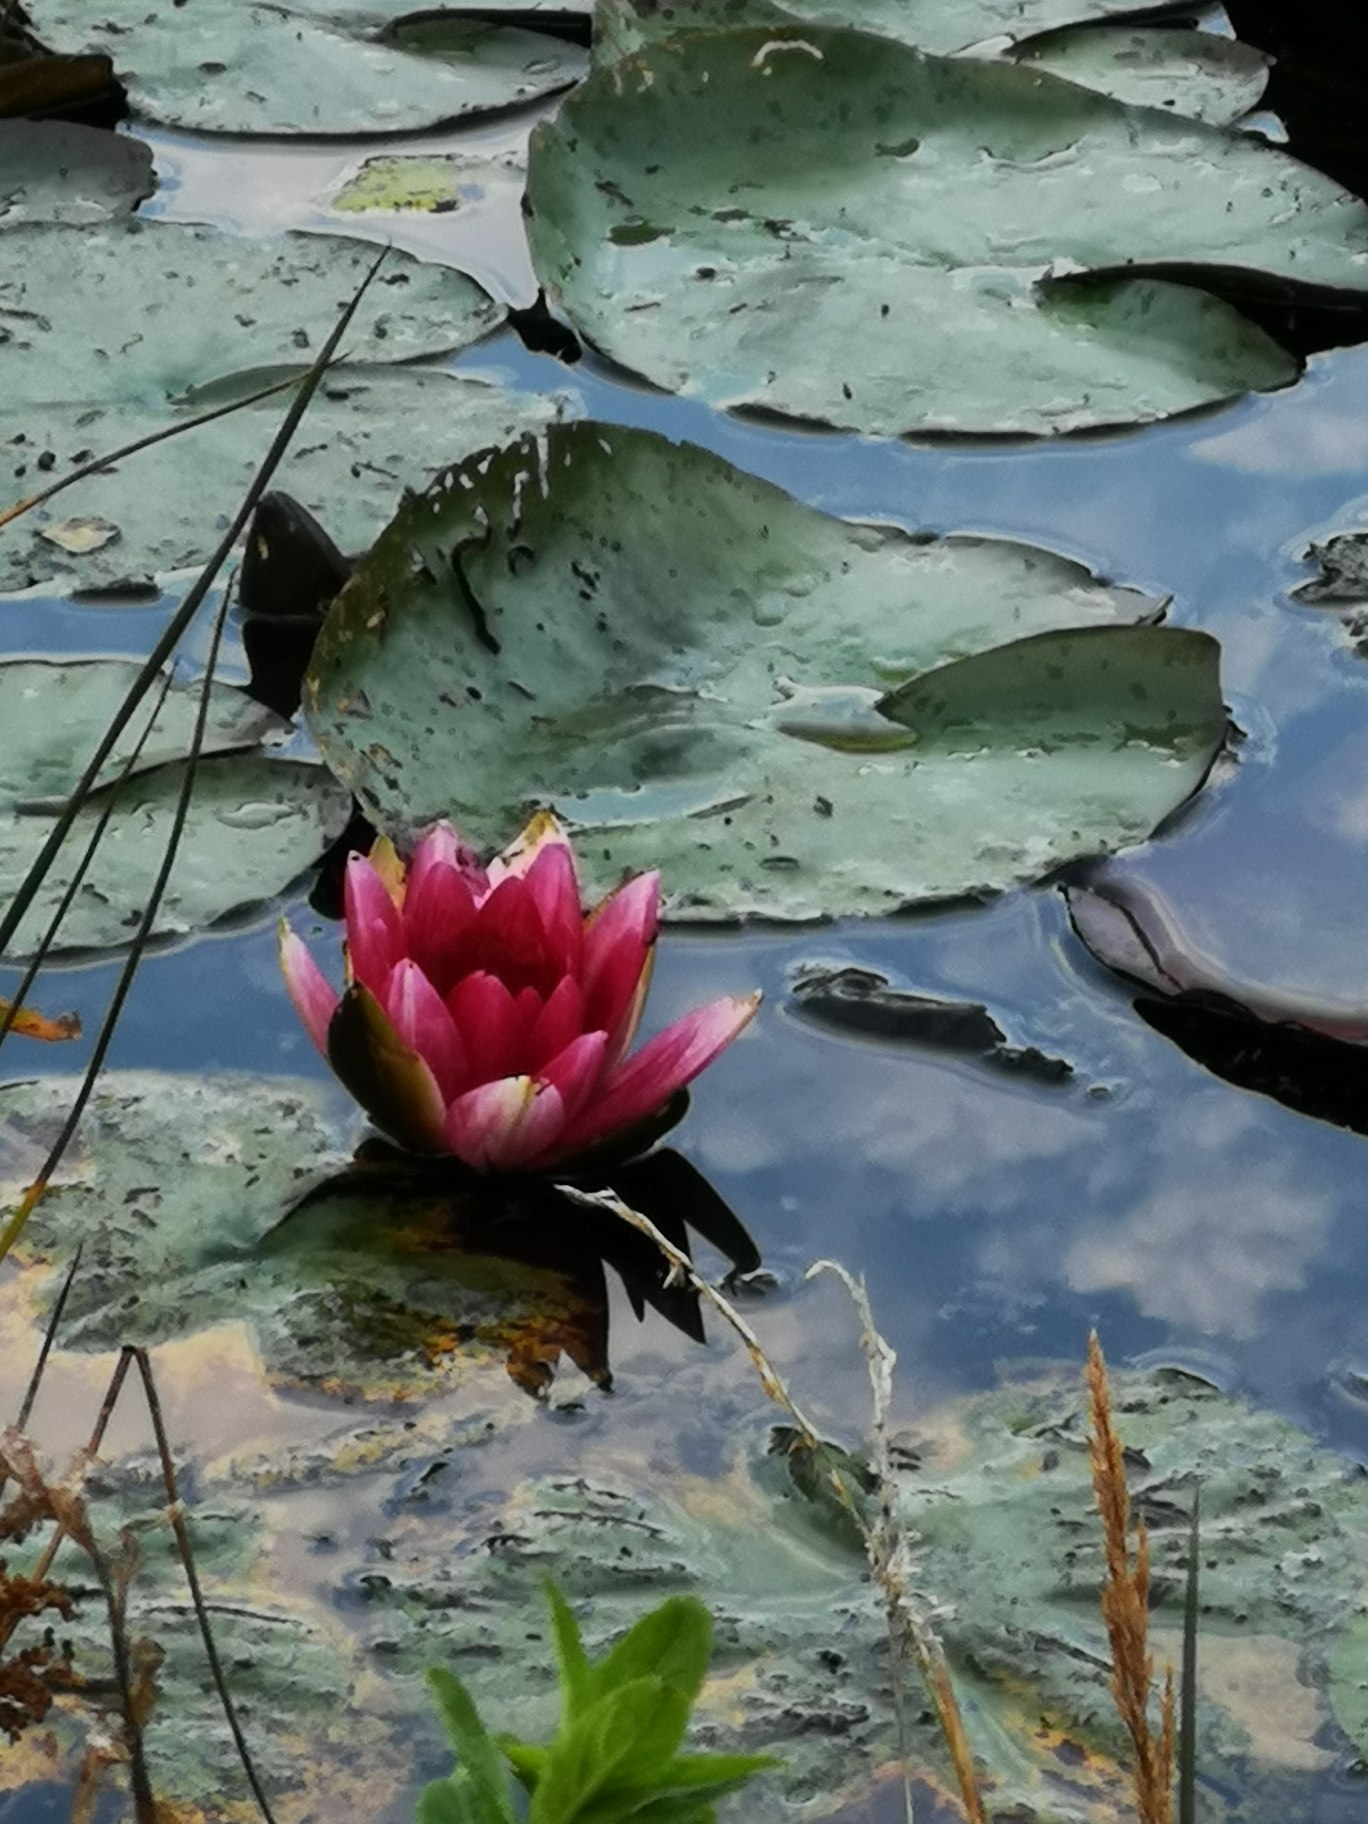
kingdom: Plantae
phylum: Tracheophyta
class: Magnoliopsida
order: Nymphaeales
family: Nymphaeaceae
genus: Nuphar
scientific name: Nuphar rubrodisca
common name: Hybrid-nøkkerose
